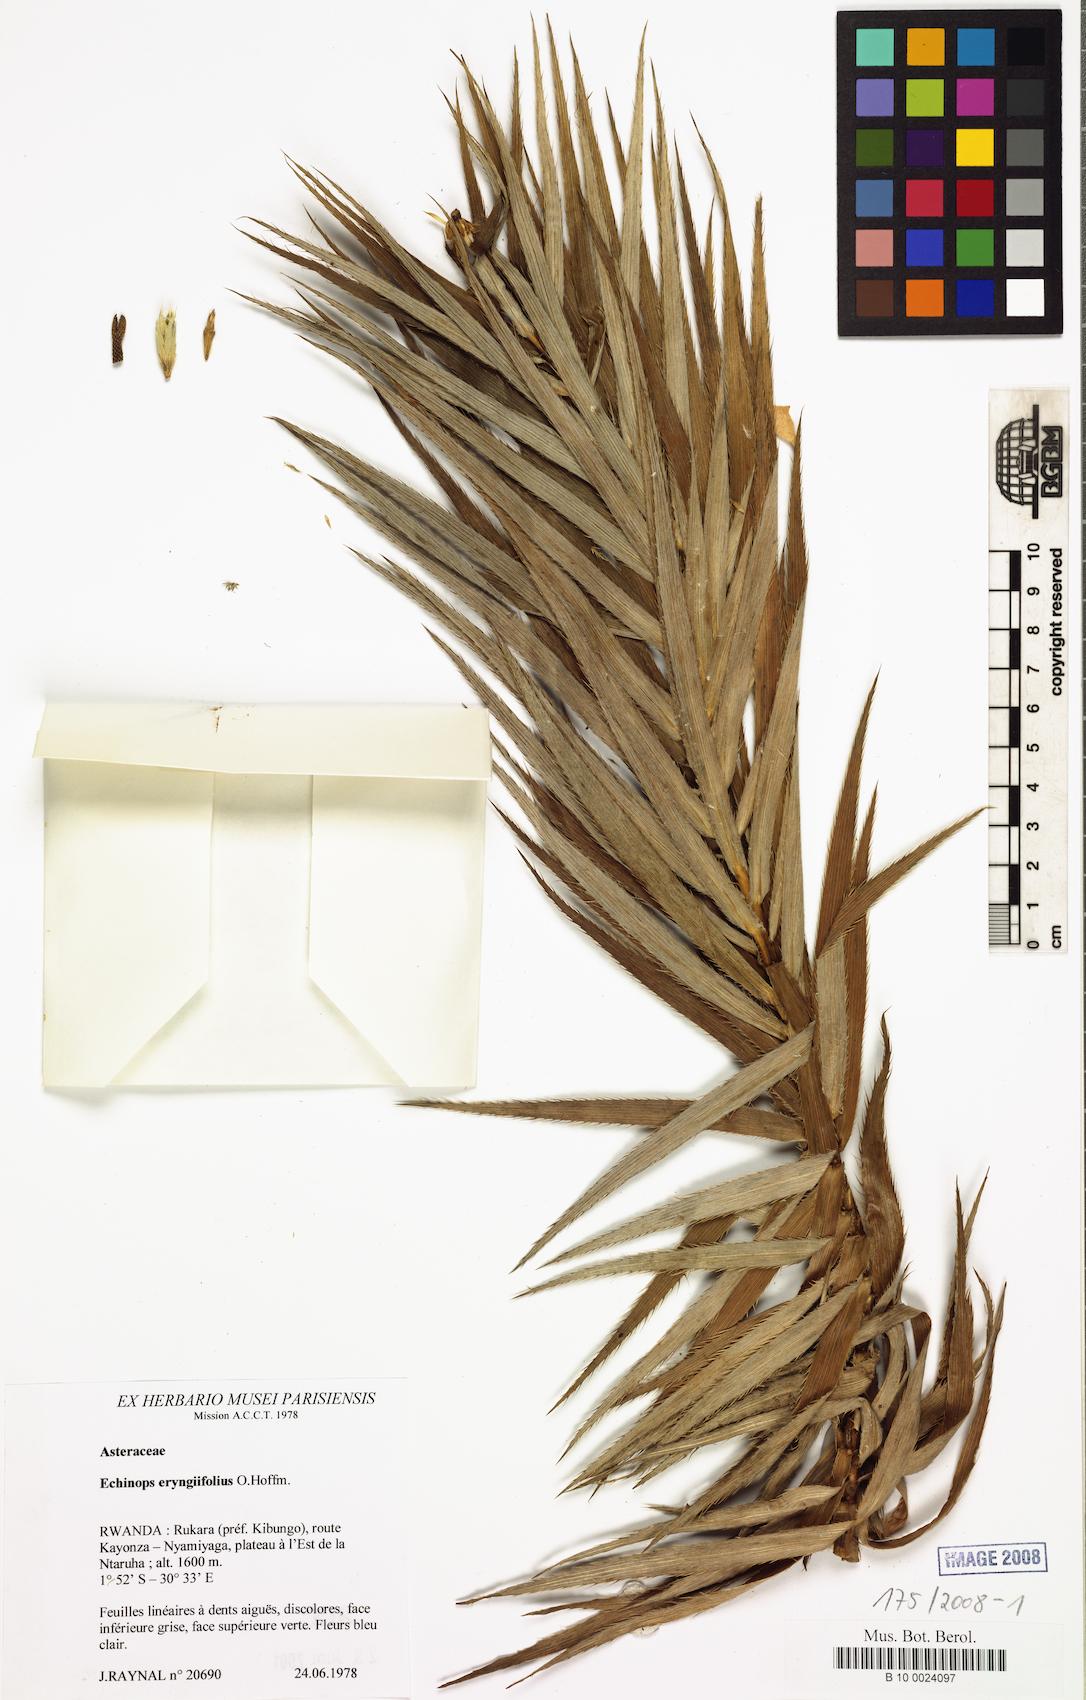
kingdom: Plantae
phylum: Tracheophyta
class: Magnoliopsida
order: Asterales
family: Asteraceae
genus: Echinops
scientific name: Echinops eryngiifolius
